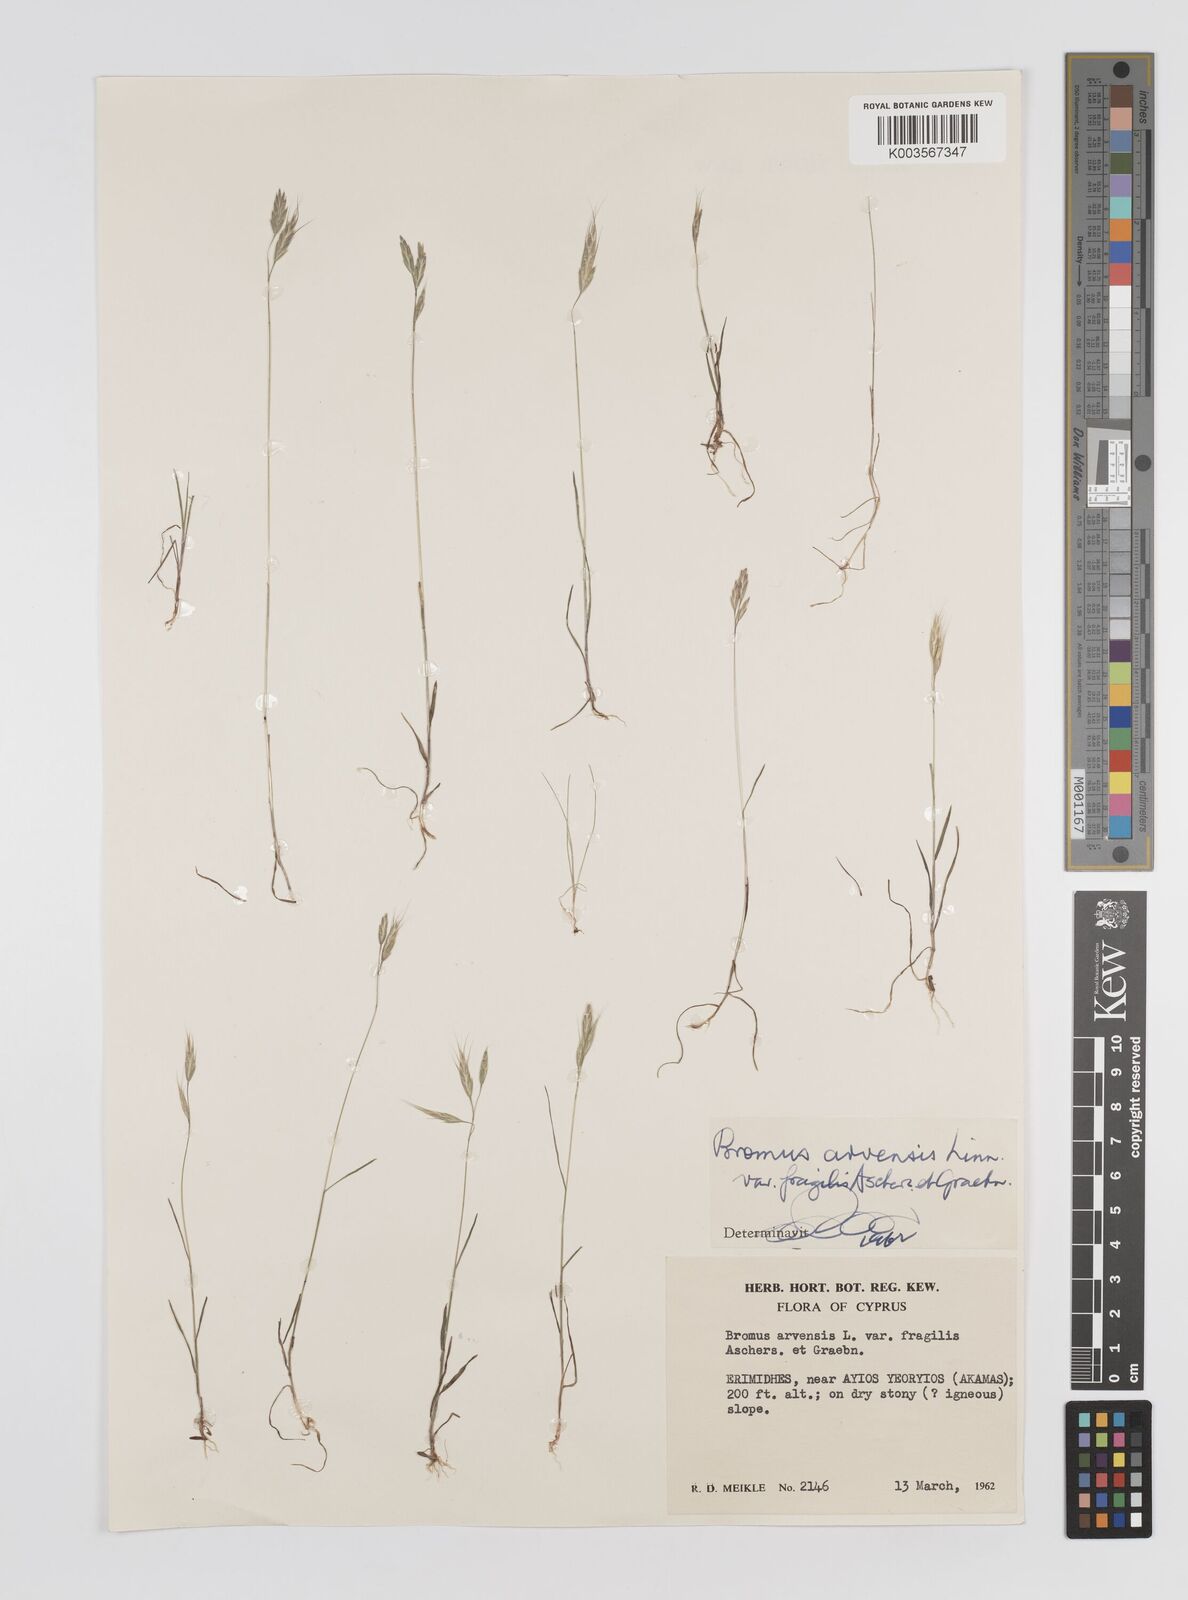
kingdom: Plantae
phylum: Tracheophyta
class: Liliopsida
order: Poales
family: Poaceae
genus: Bromus
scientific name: Bromus arvensis
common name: Field brome
